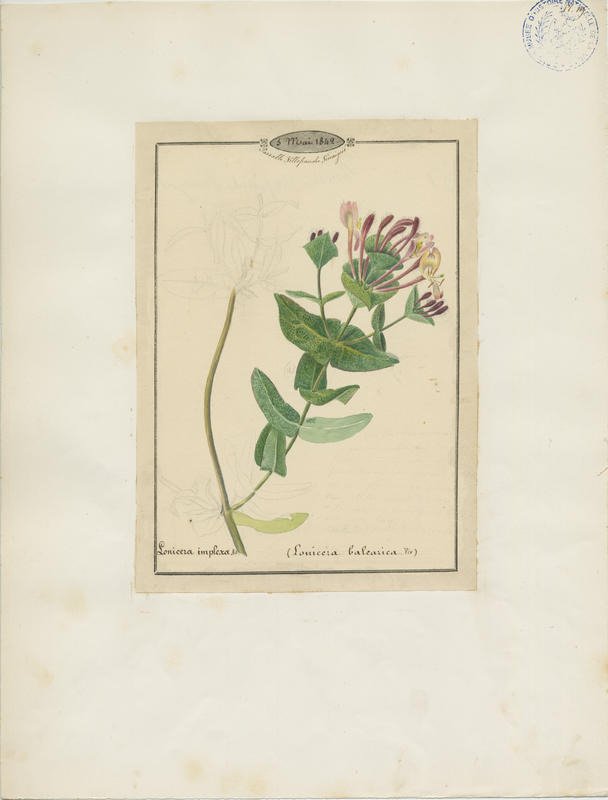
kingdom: Plantae
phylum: Tracheophyta
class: Magnoliopsida
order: Dipsacales
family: Caprifoliaceae
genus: Lonicera
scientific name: Lonicera implexa
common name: Minorca honeysuckle
